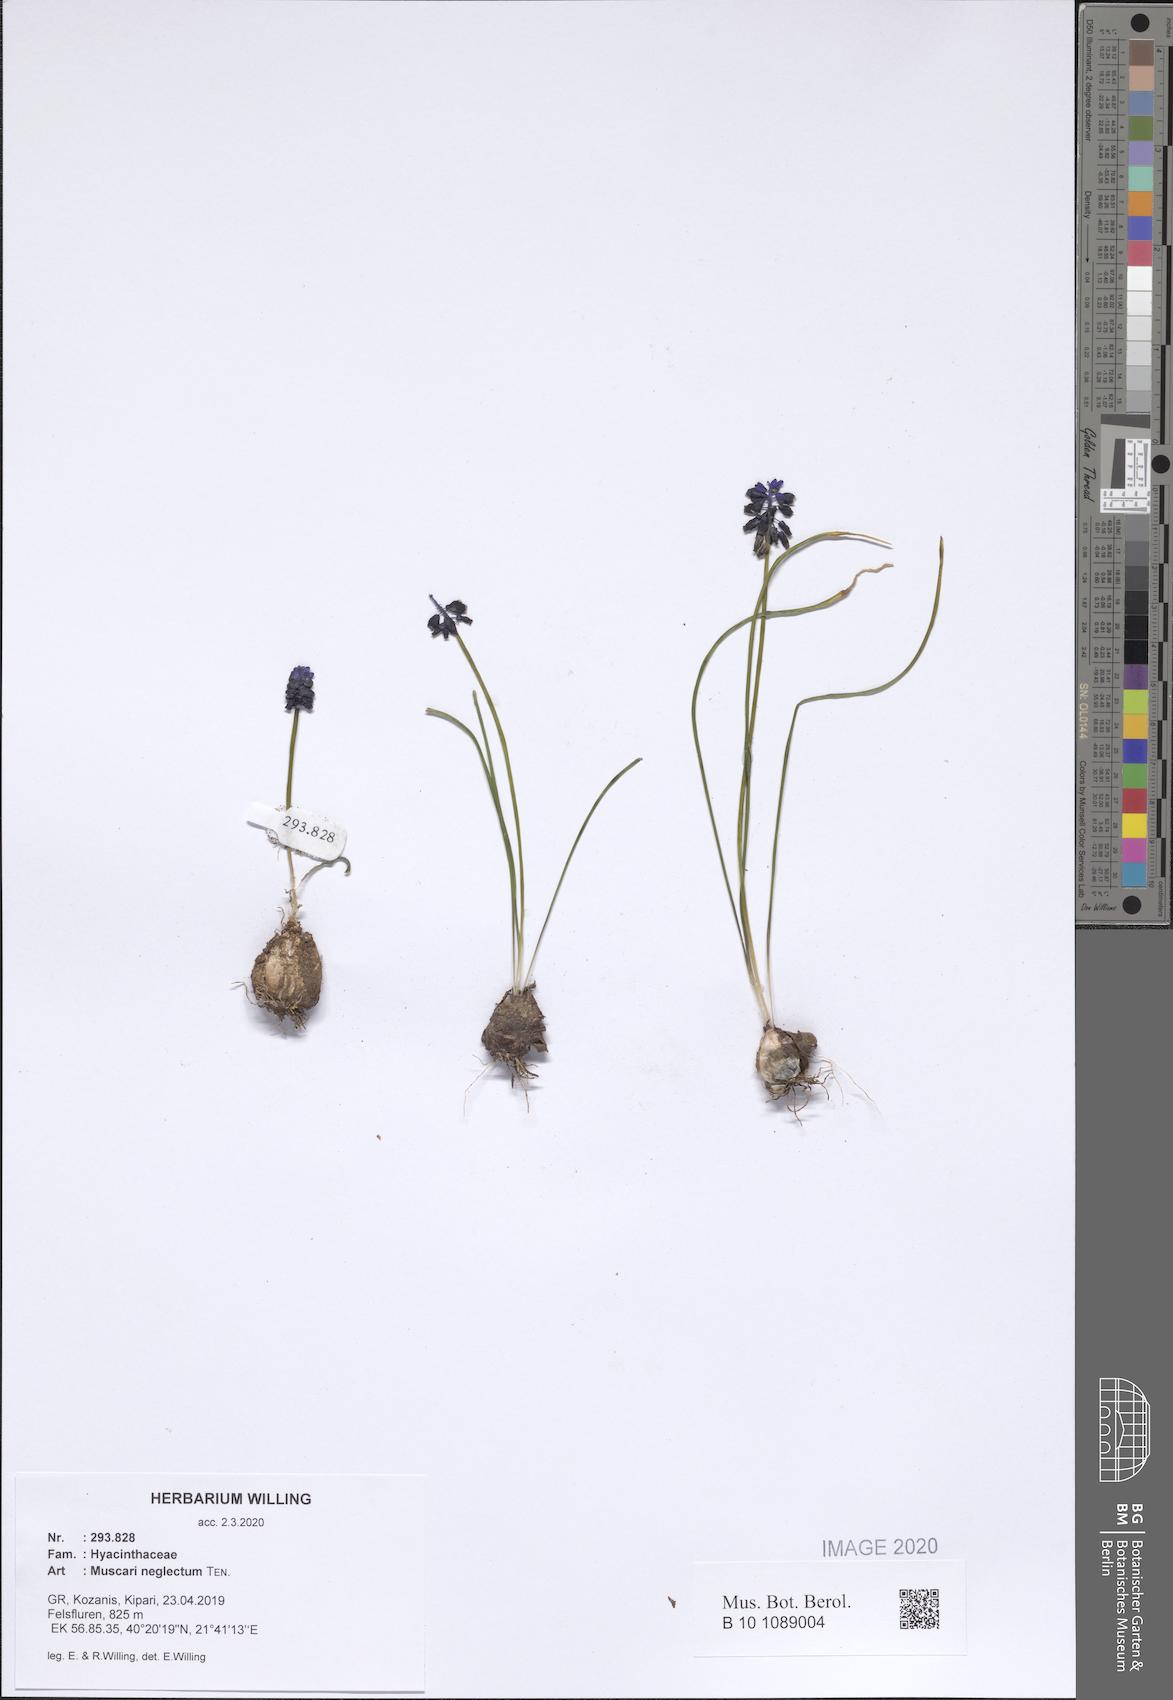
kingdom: Plantae
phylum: Tracheophyta
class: Liliopsida
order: Asparagales
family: Asparagaceae
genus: Muscari
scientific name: Muscari neglectum
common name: Grape-hyacinth
